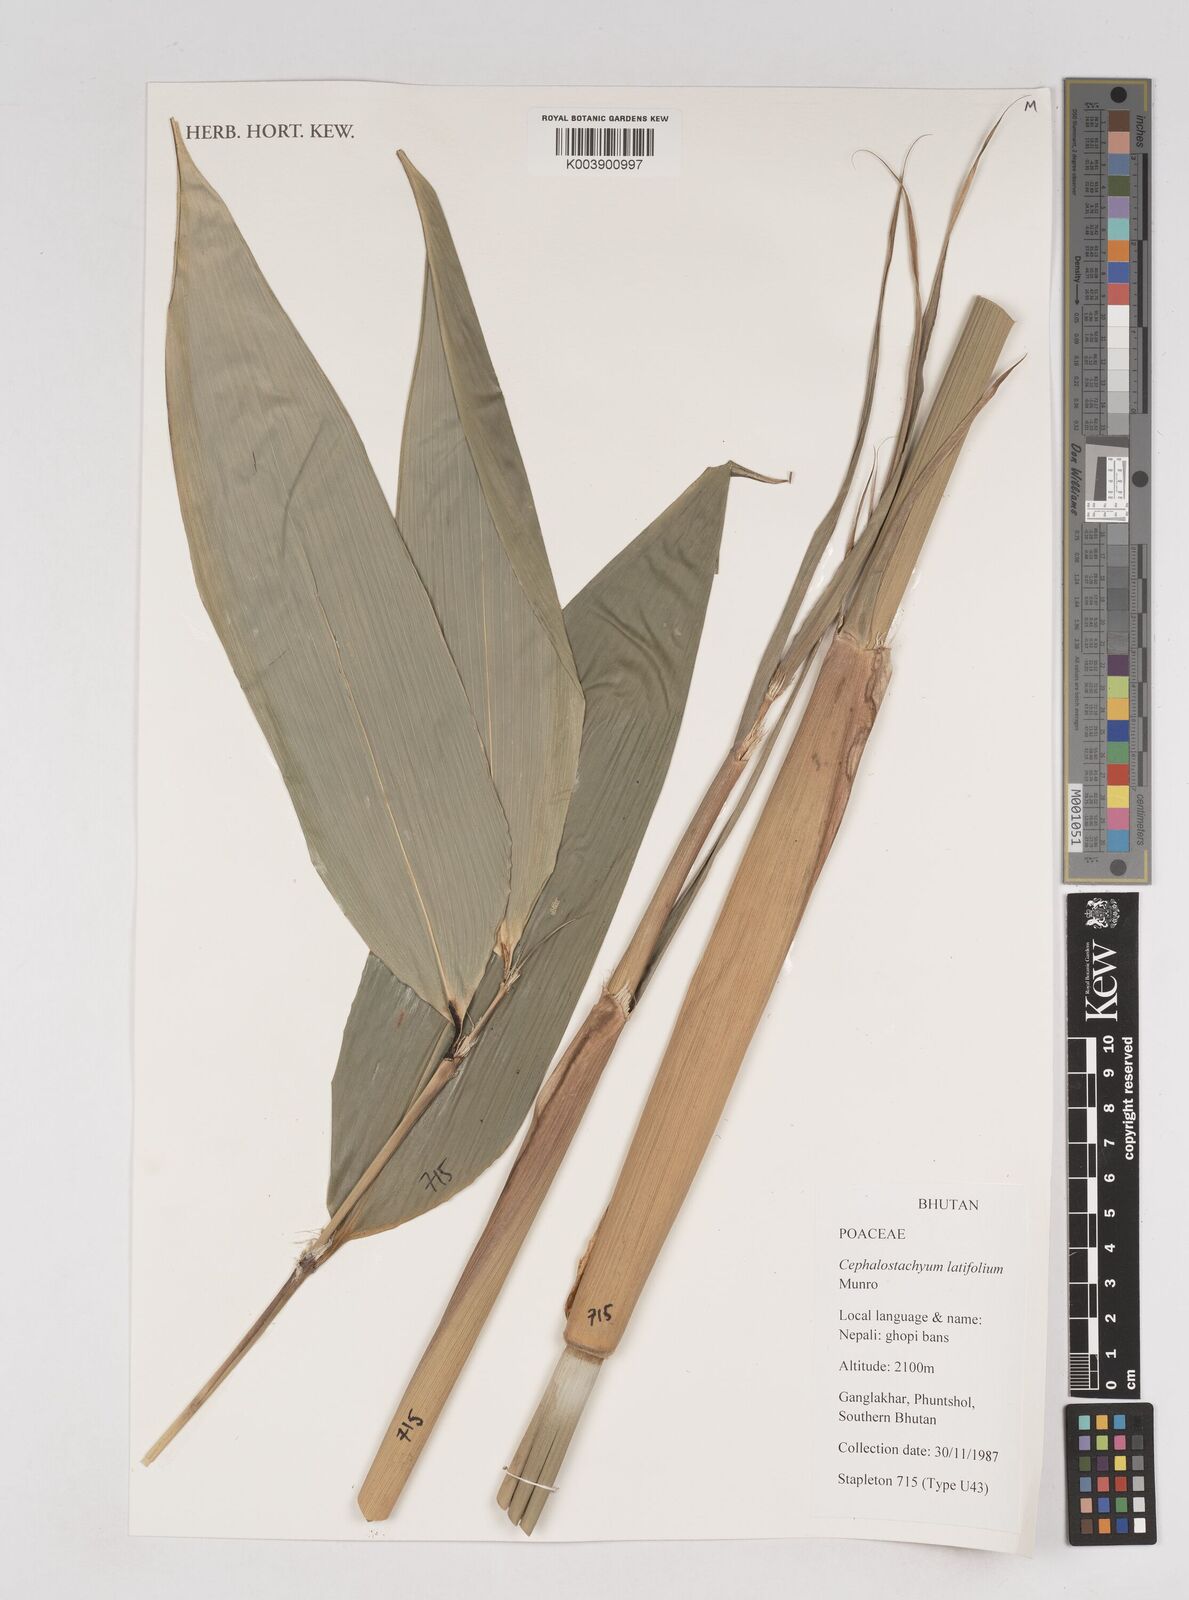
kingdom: Plantae
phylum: Tracheophyta
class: Liliopsida
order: Poales
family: Poaceae
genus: Cephalostachyum
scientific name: Cephalostachyum latifolium
